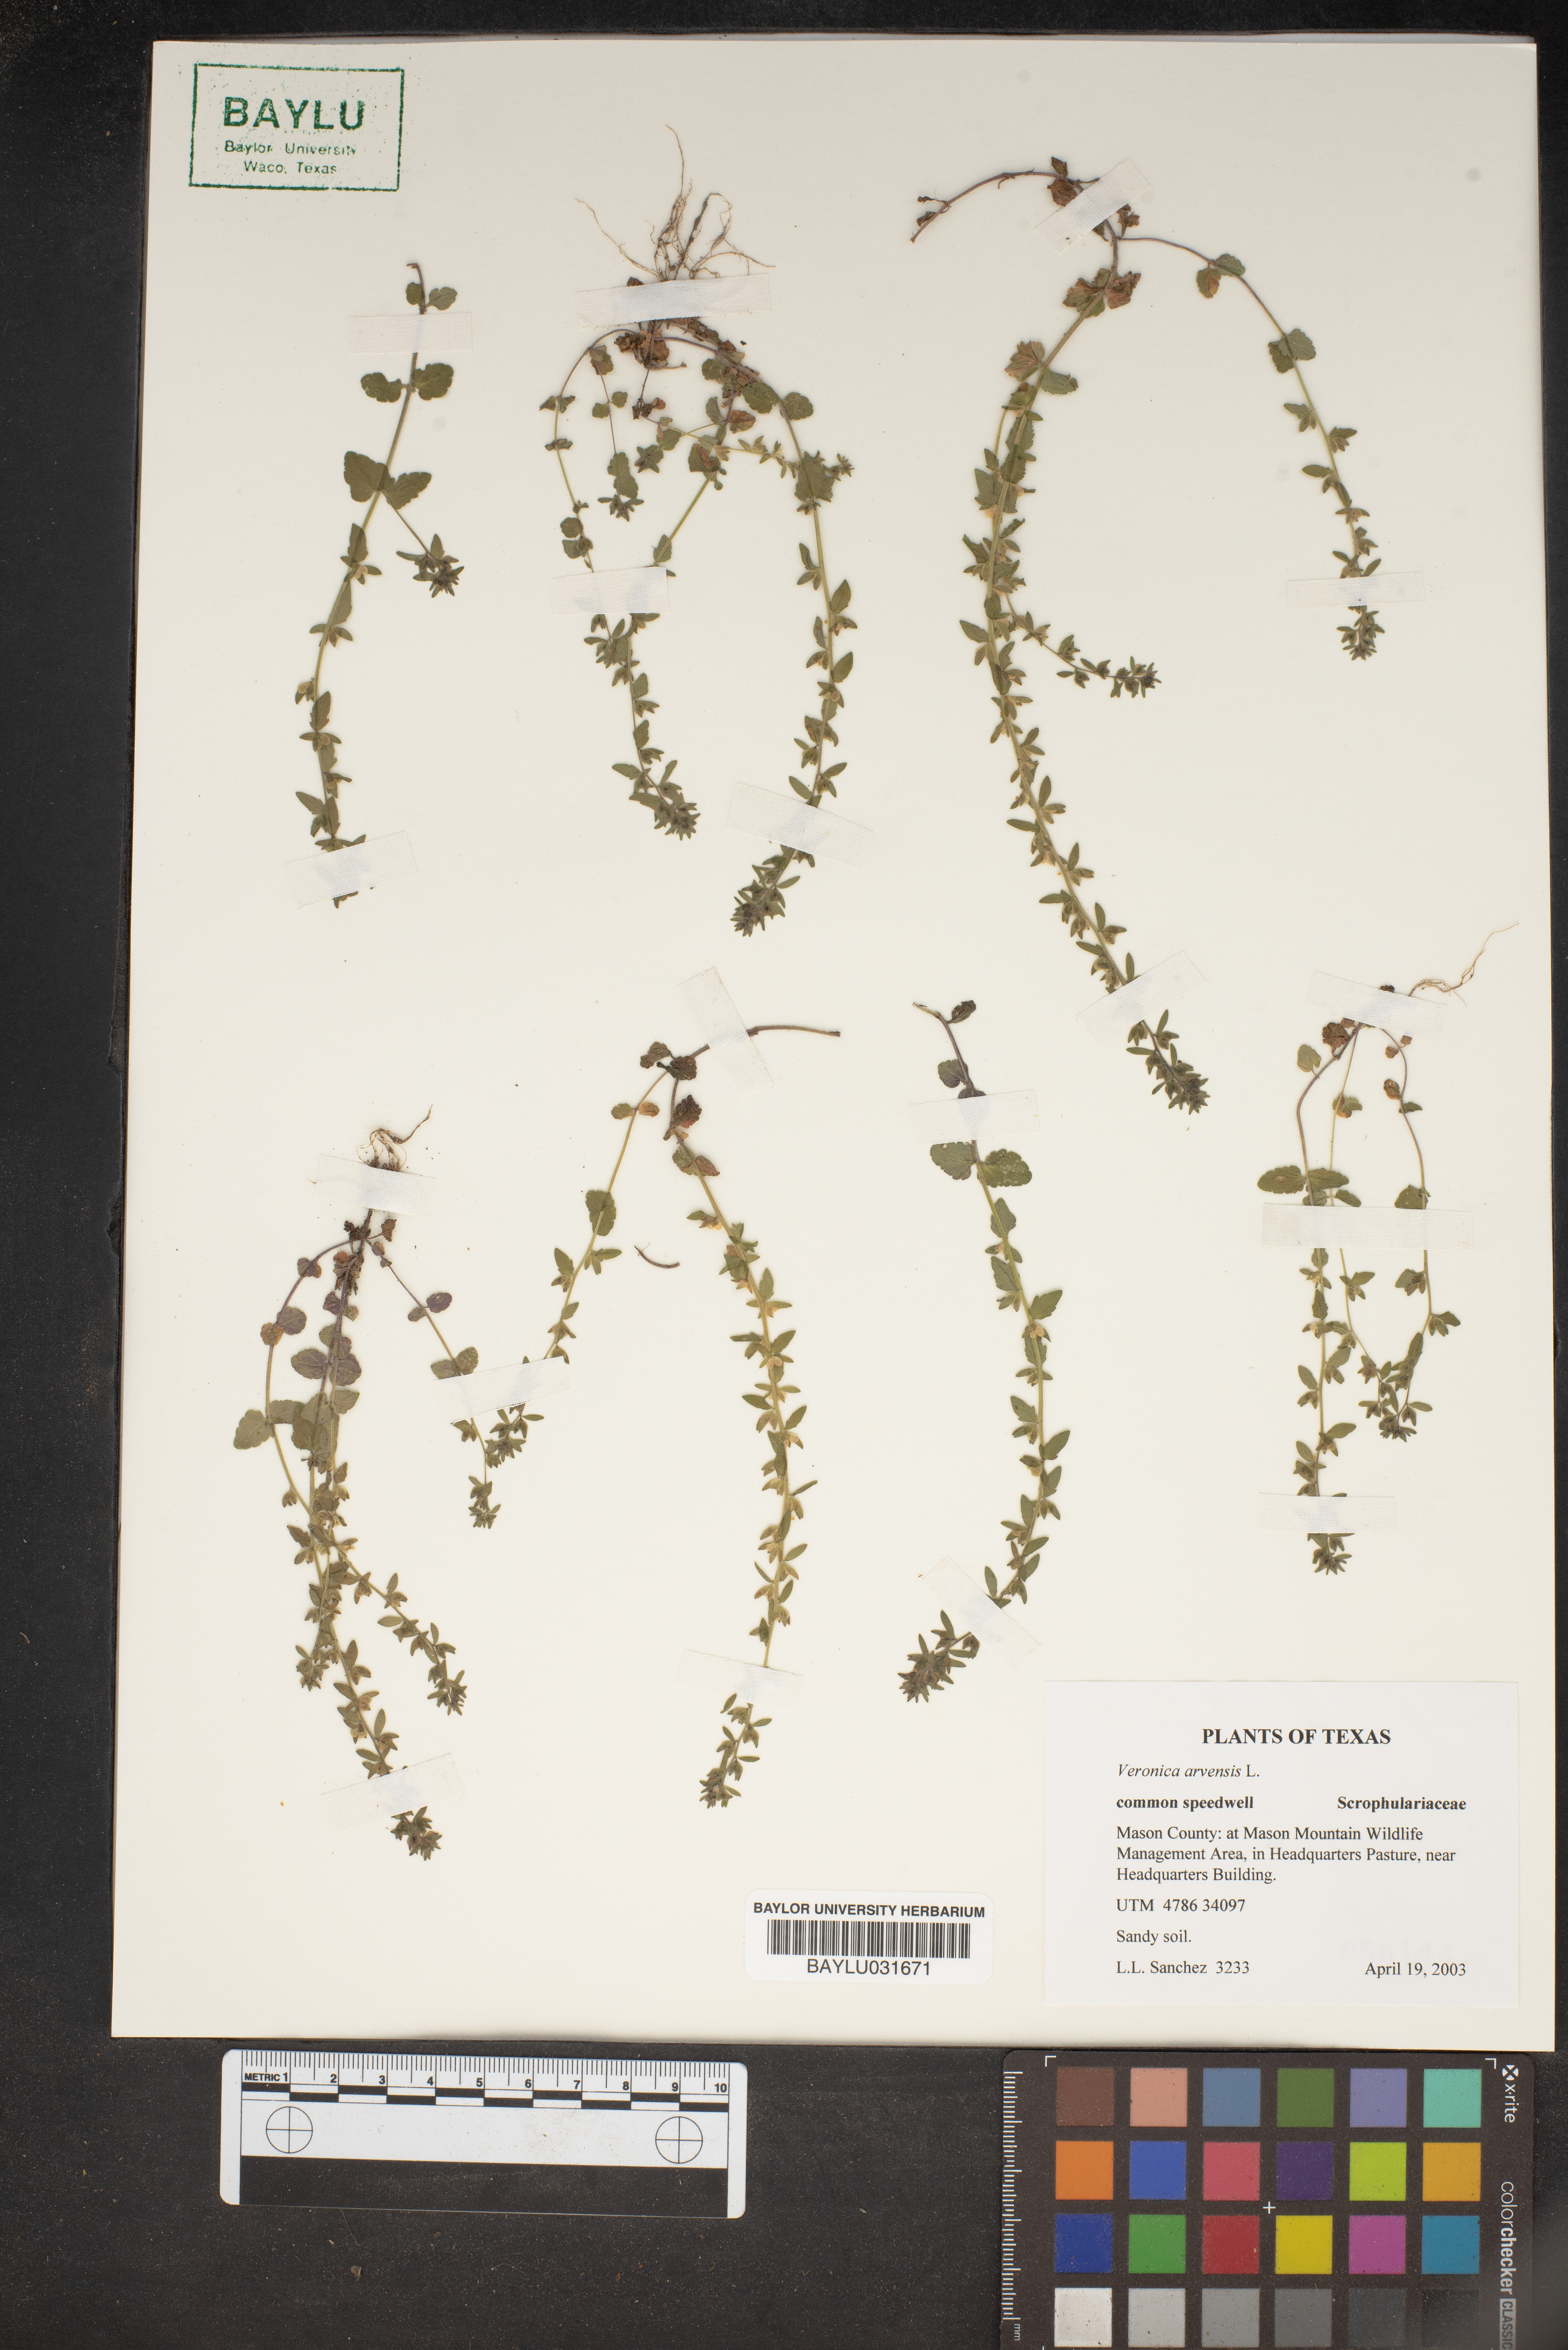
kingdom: Plantae
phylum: Tracheophyta
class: Magnoliopsida
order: Lamiales
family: Plantaginaceae
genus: Veronica
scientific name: Veronica arvensis
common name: Corn speedwell
